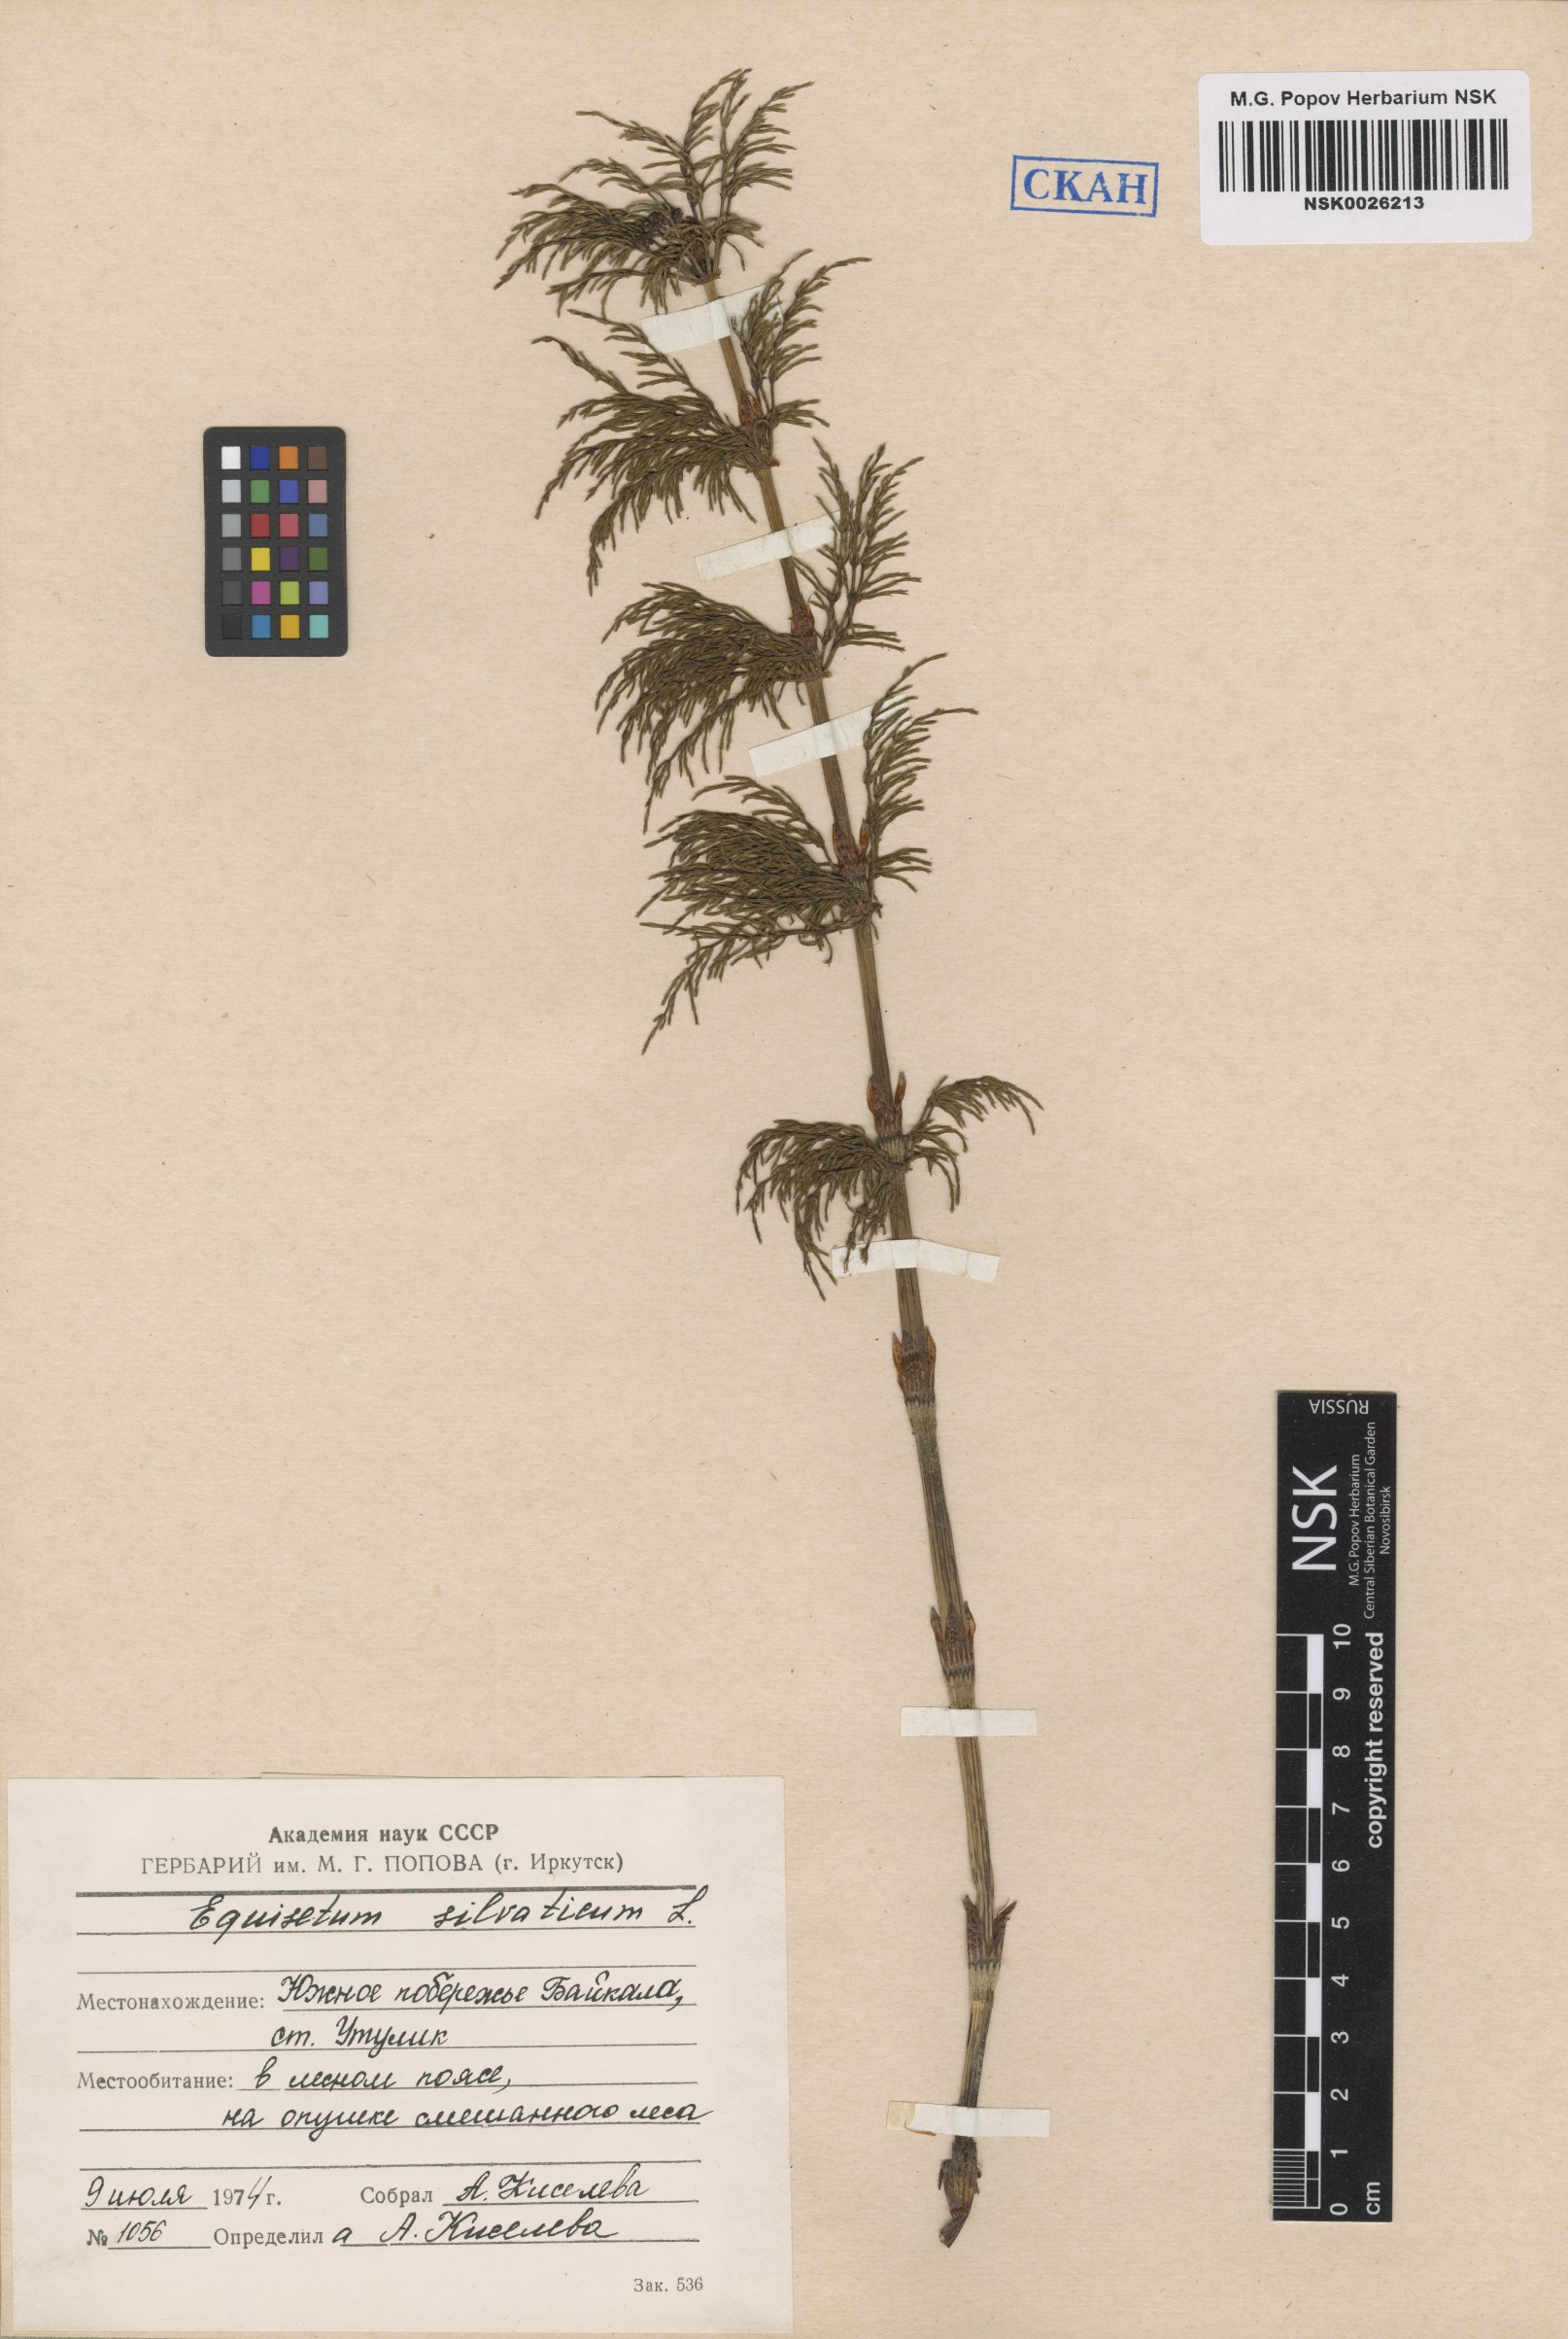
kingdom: Plantae
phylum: Tracheophyta
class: Polypodiopsida
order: Equisetales
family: Equisetaceae
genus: Equisetum
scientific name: Equisetum sylvaticum
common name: Wood horsetail
